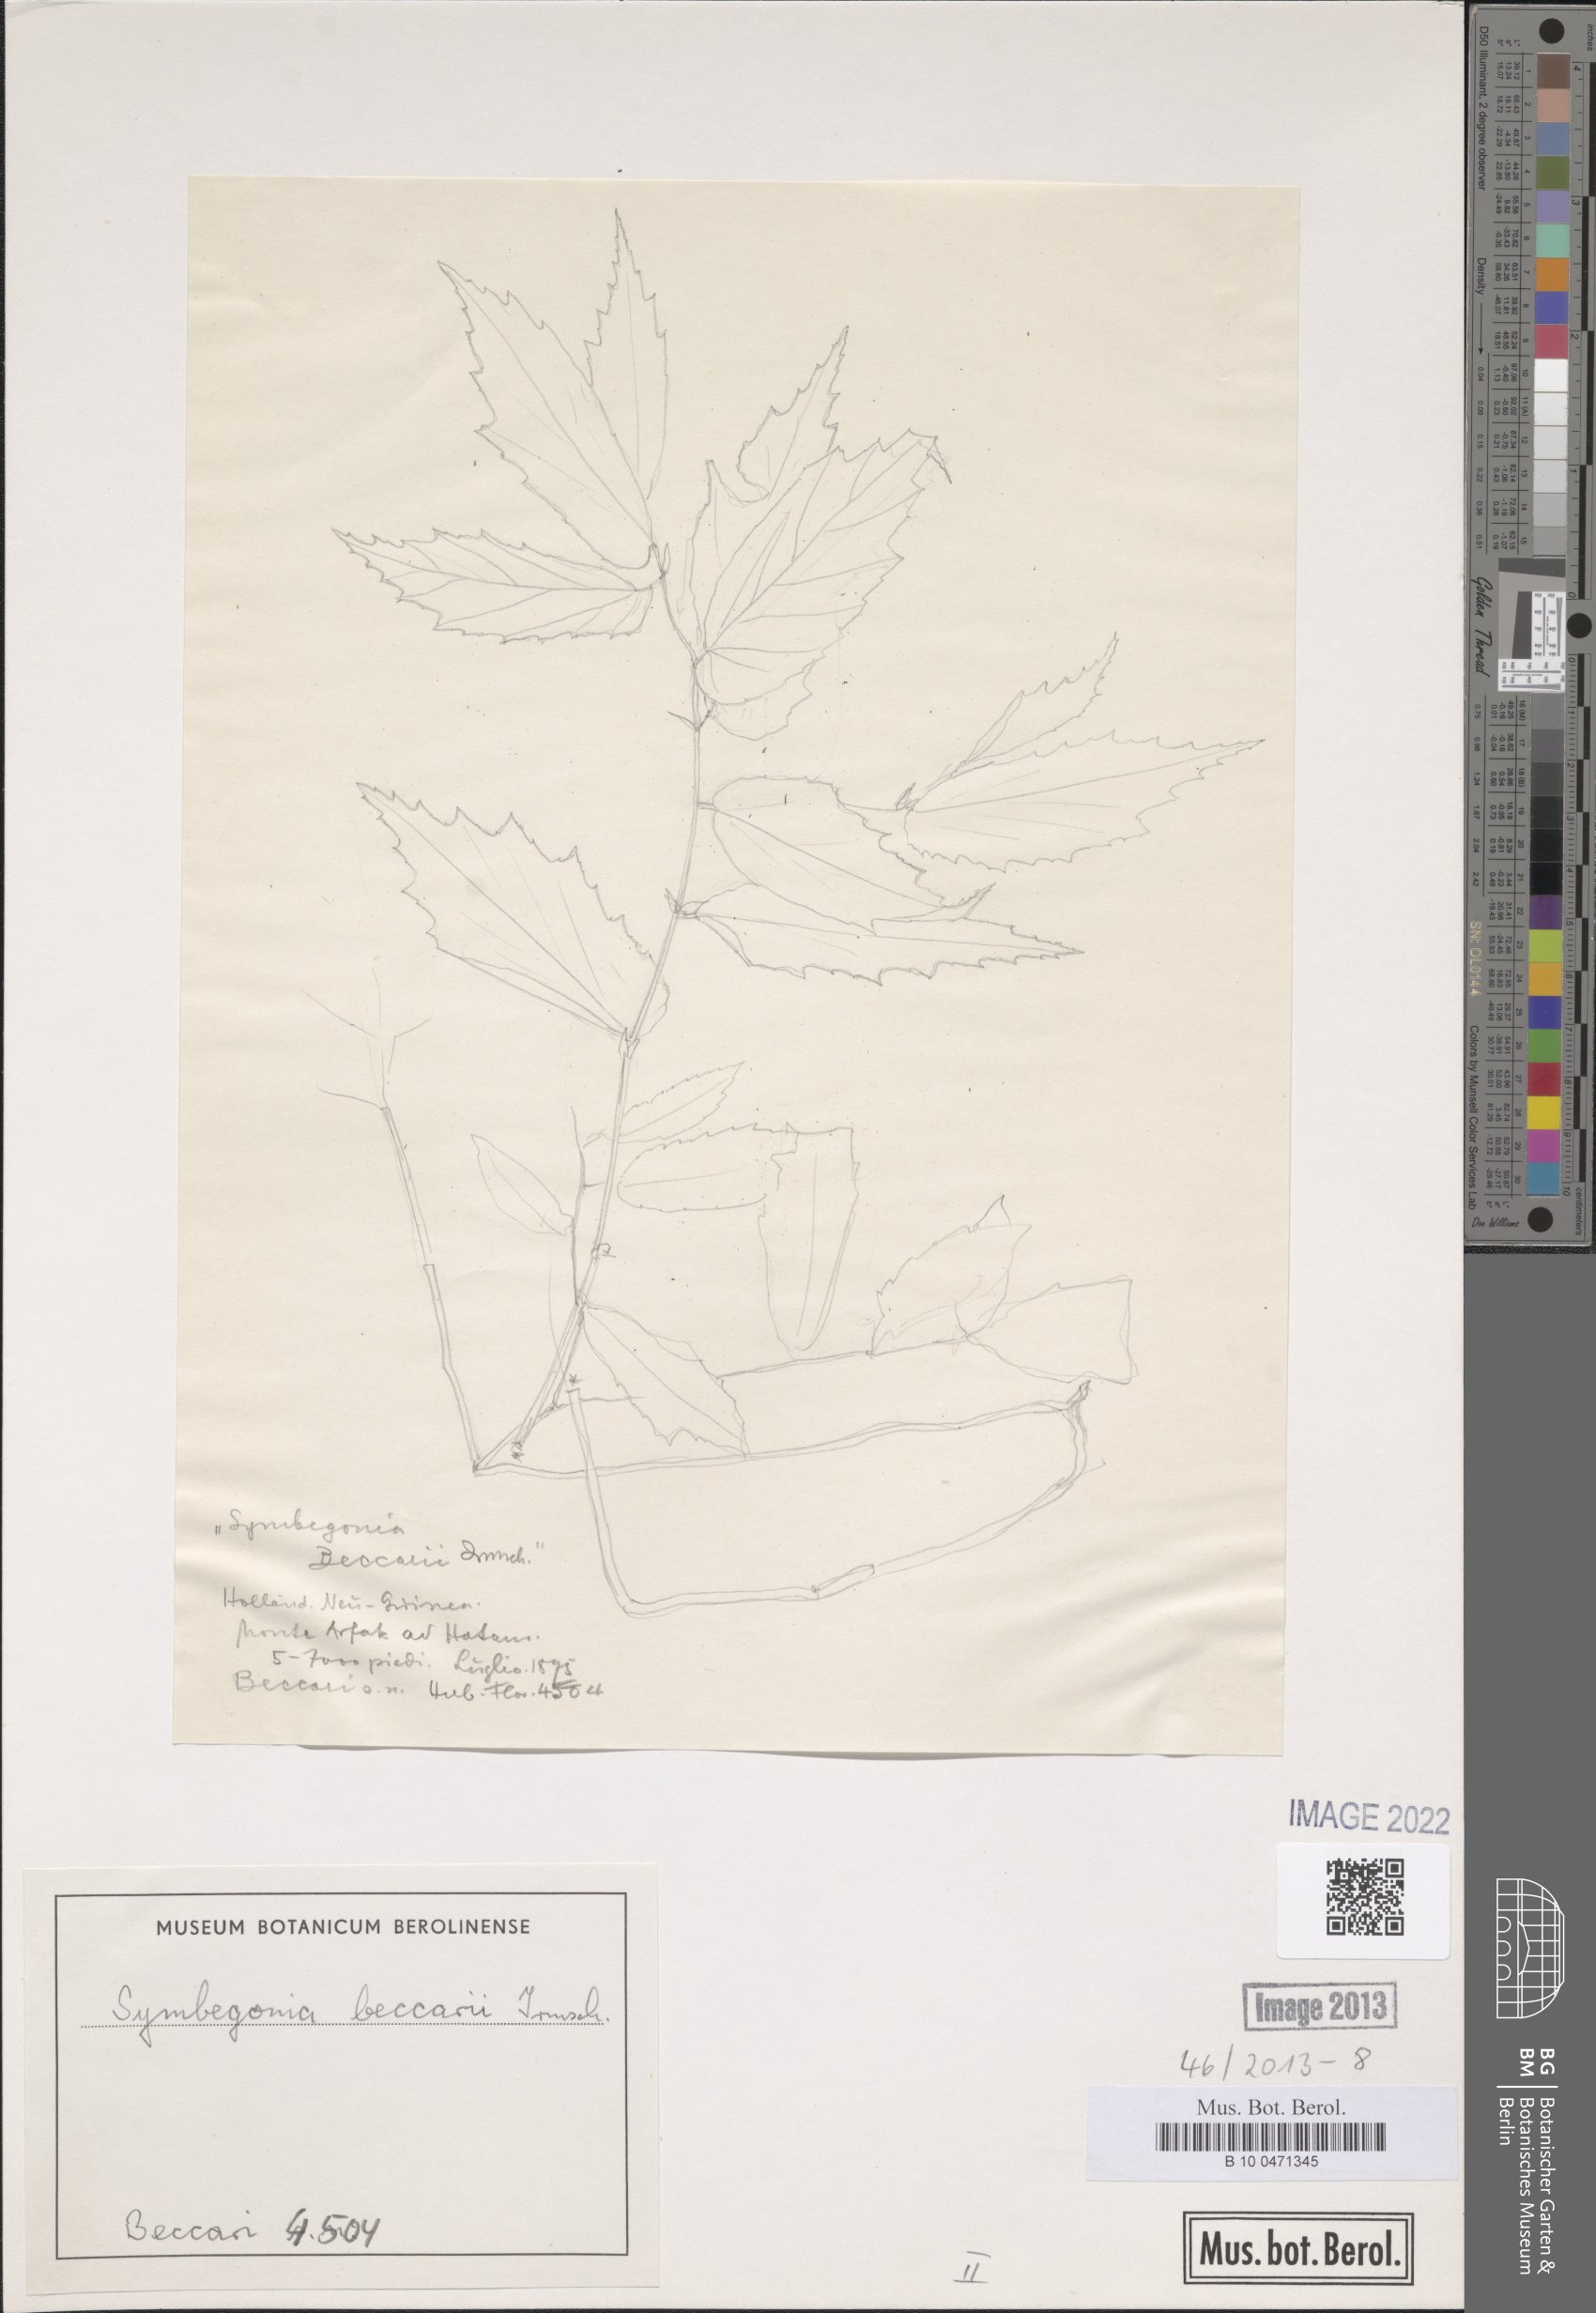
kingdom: Plantae
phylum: Tracheophyta
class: Magnoliopsida
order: Cucurbitales
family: Begoniaceae
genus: Begonia
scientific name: Begonia arfakensis
